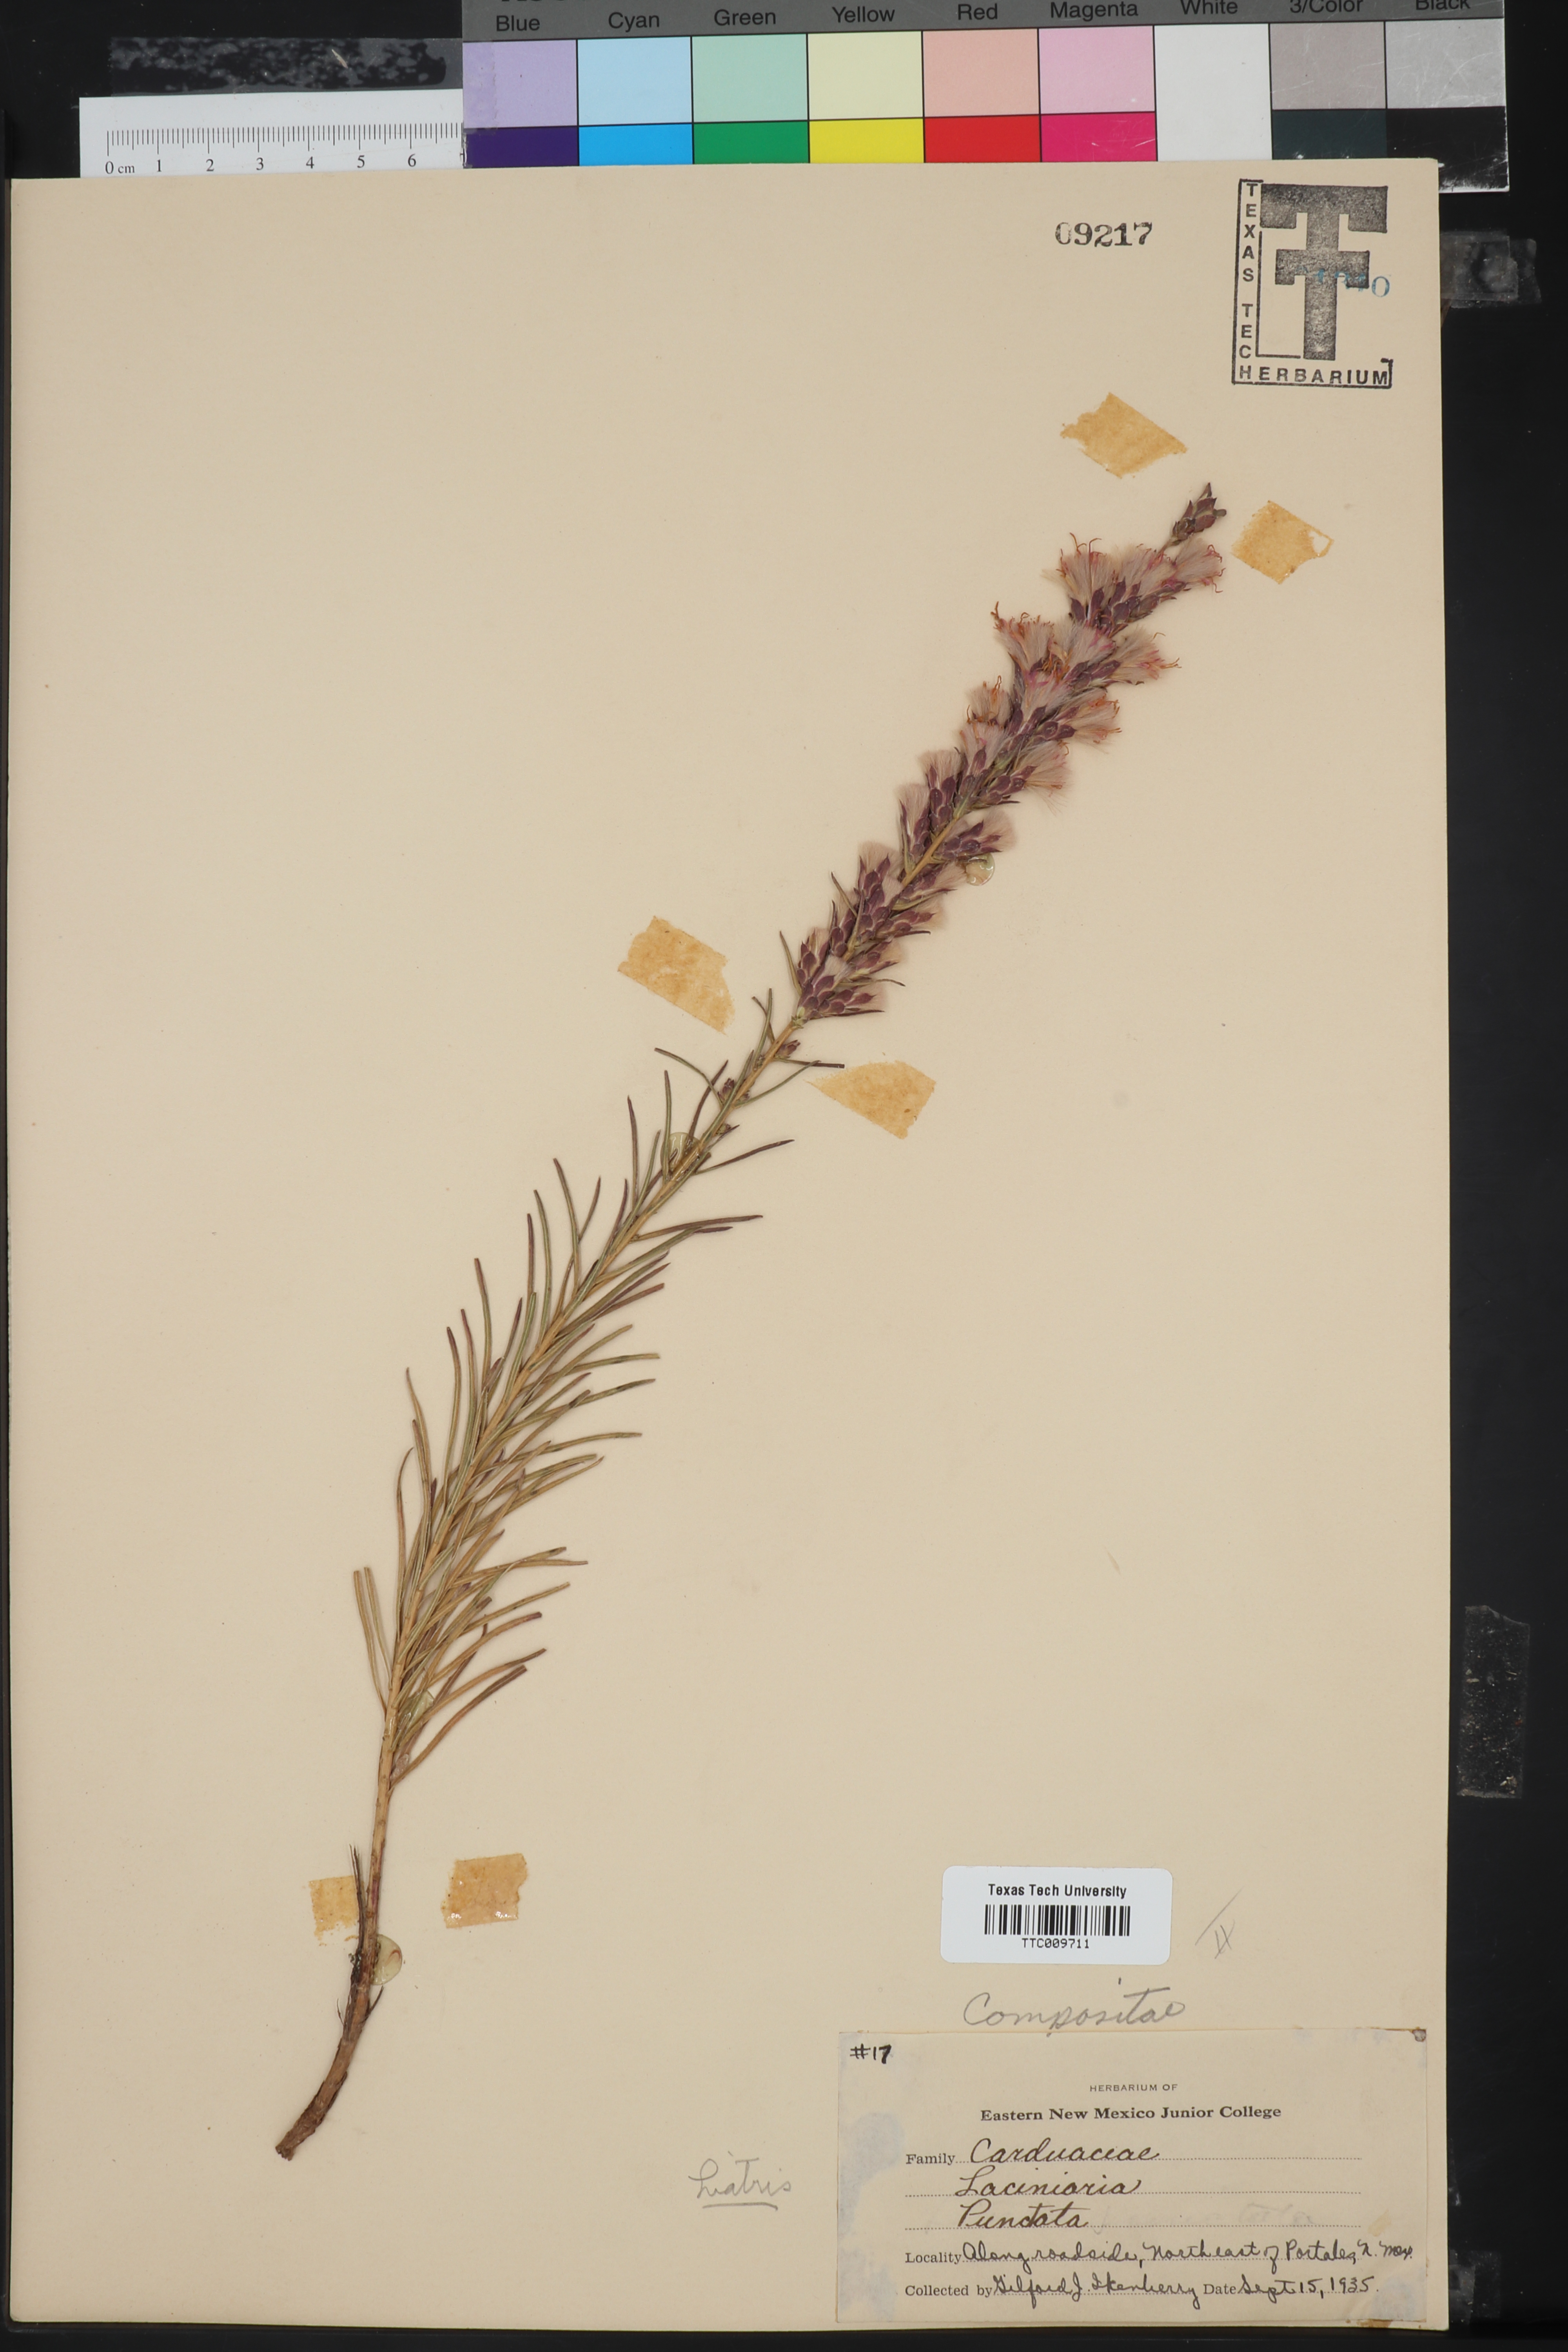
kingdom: Plantae
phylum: Tracheophyta
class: Magnoliopsida
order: Asterales
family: Asteraceae
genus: Liatris
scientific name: Liatris punctata
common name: Dotted gayfeather
